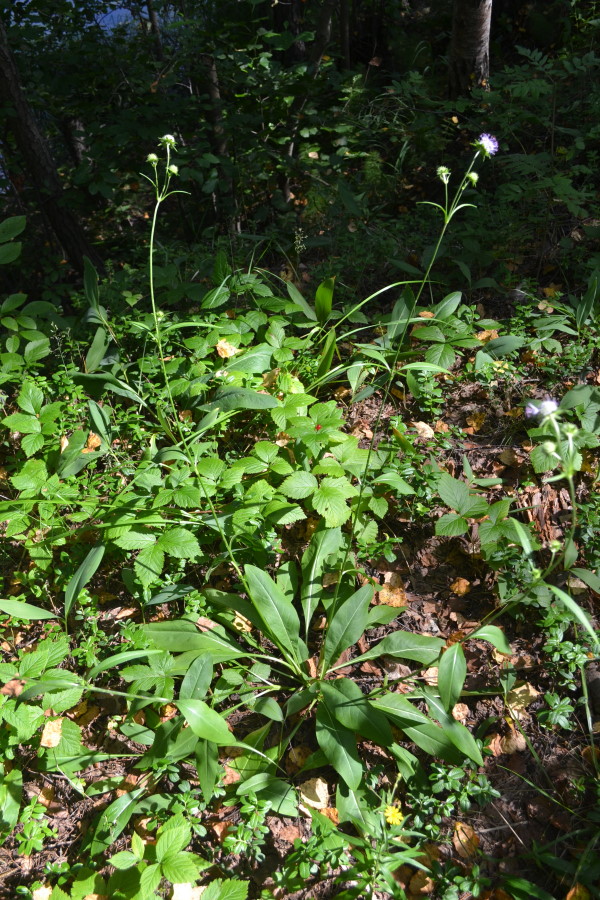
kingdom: Plantae
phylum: Tracheophyta
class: Magnoliopsida
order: Dipsacales
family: Caprifoliaceae
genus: Succisa
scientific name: Succisa pratensis
